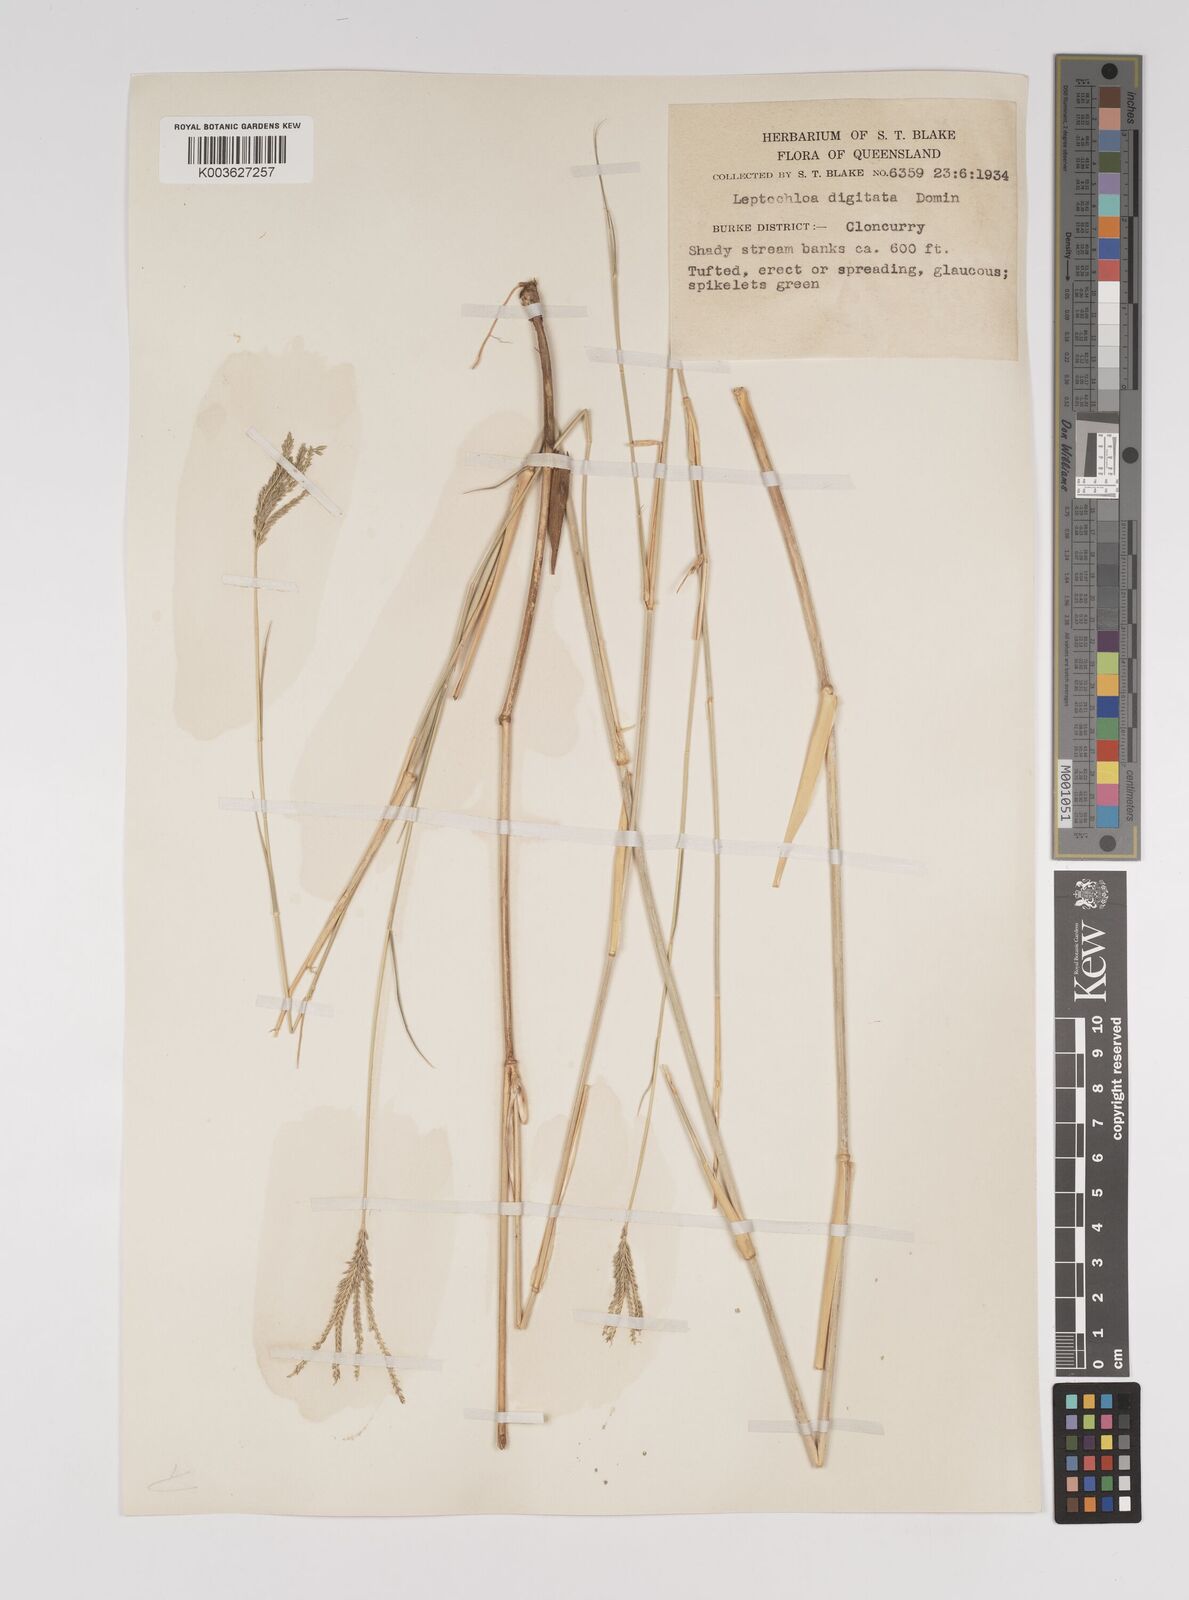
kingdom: Plantae
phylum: Tracheophyta
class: Liliopsida
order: Poales
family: Poaceae
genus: Leptochloa
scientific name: Leptochloa digitata
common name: Finger sprangletop
